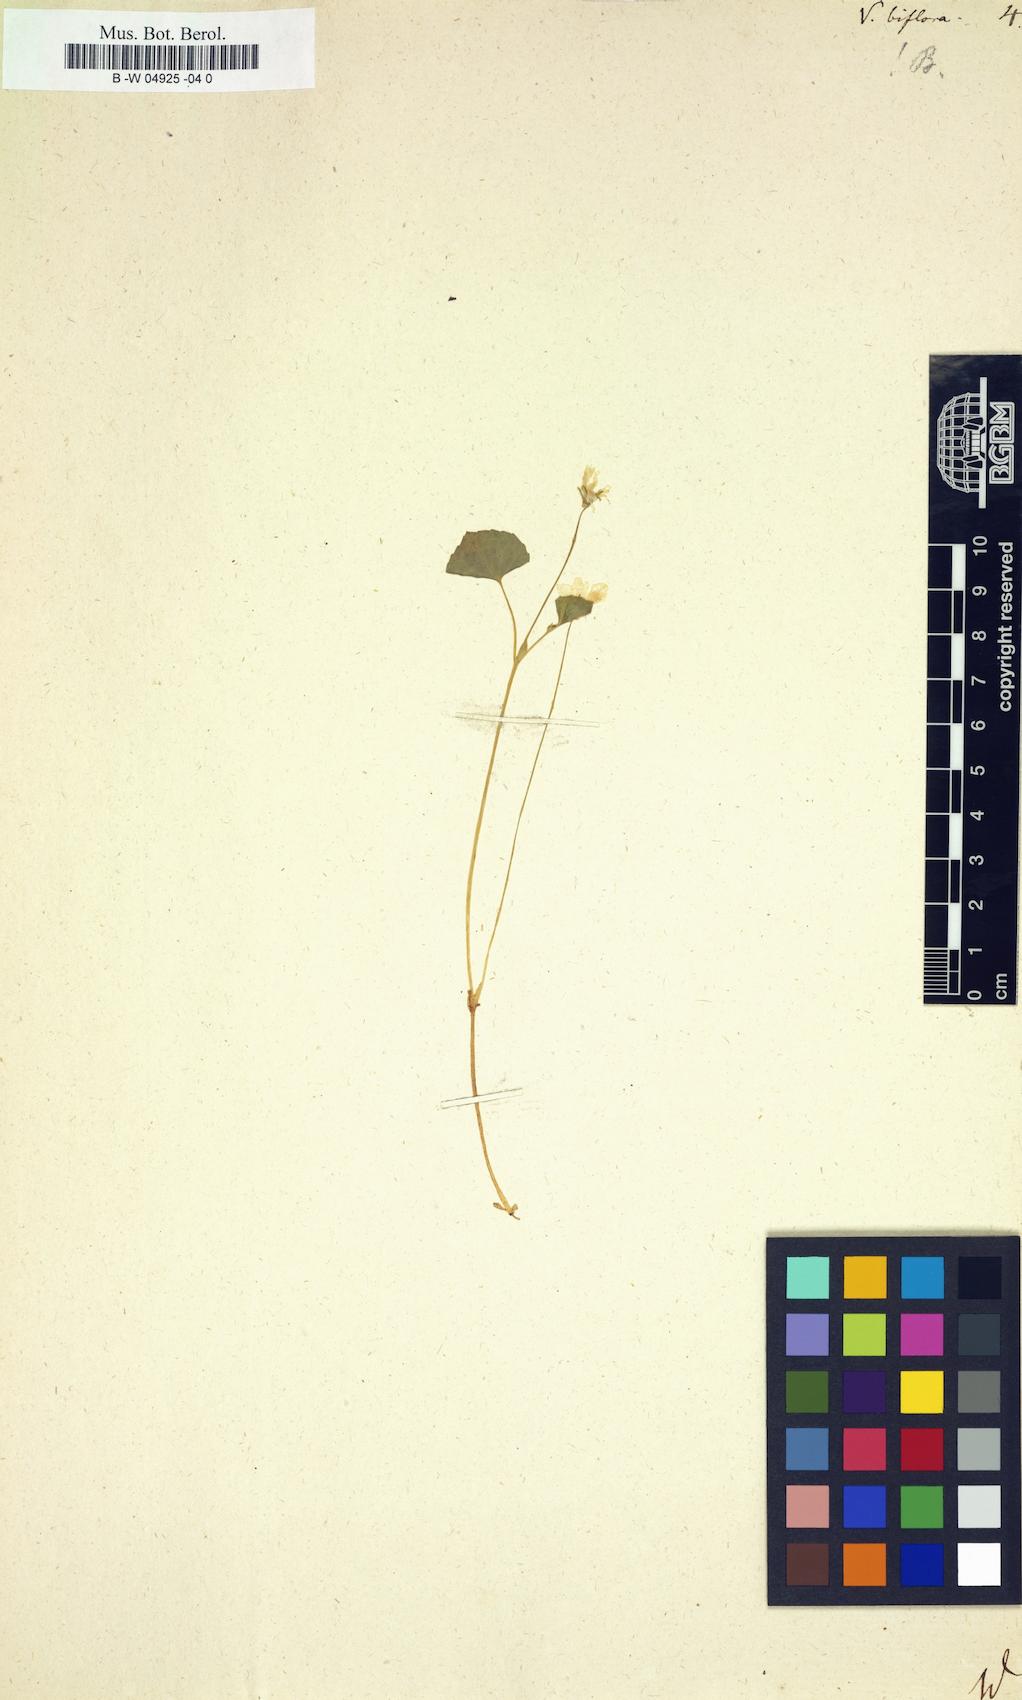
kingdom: Plantae
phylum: Tracheophyta
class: Magnoliopsida
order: Malpighiales
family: Violaceae
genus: Viola
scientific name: Viola biflora
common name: Alpine yellow violet
